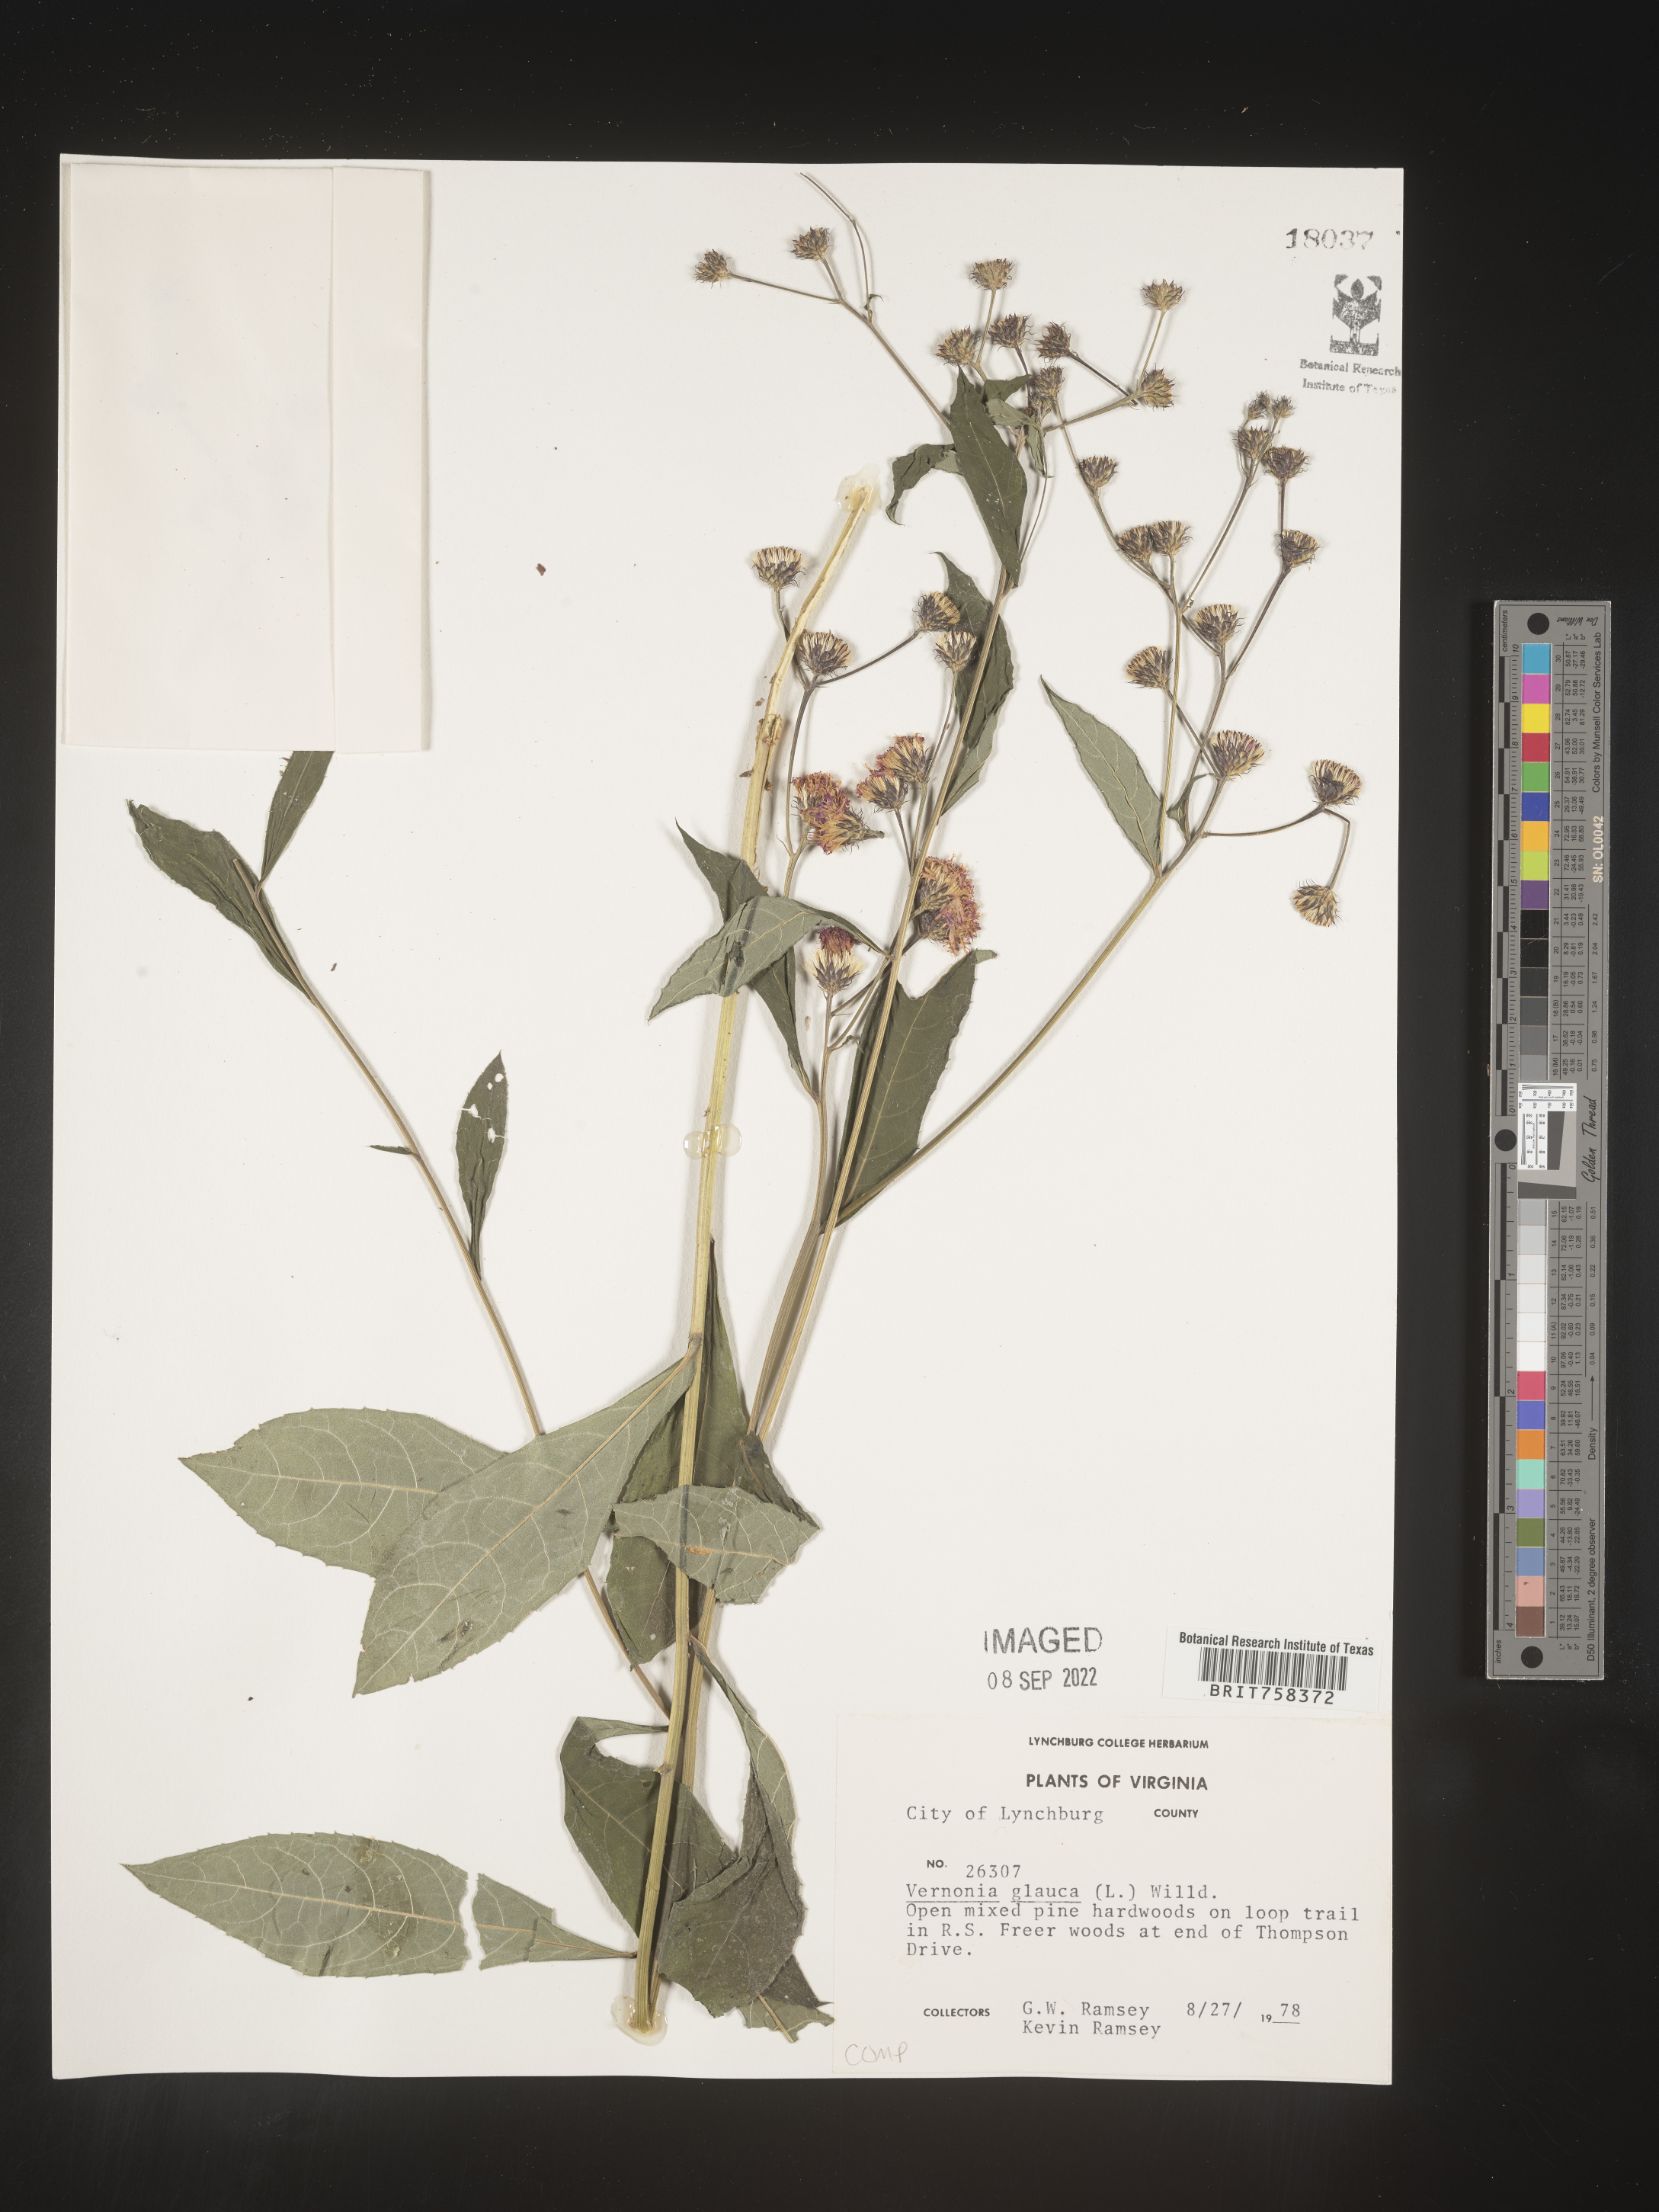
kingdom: Plantae
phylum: Tracheophyta
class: Magnoliopsida
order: Asterales
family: Asteraceae
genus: Vernonia
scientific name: Vernonia glauca
